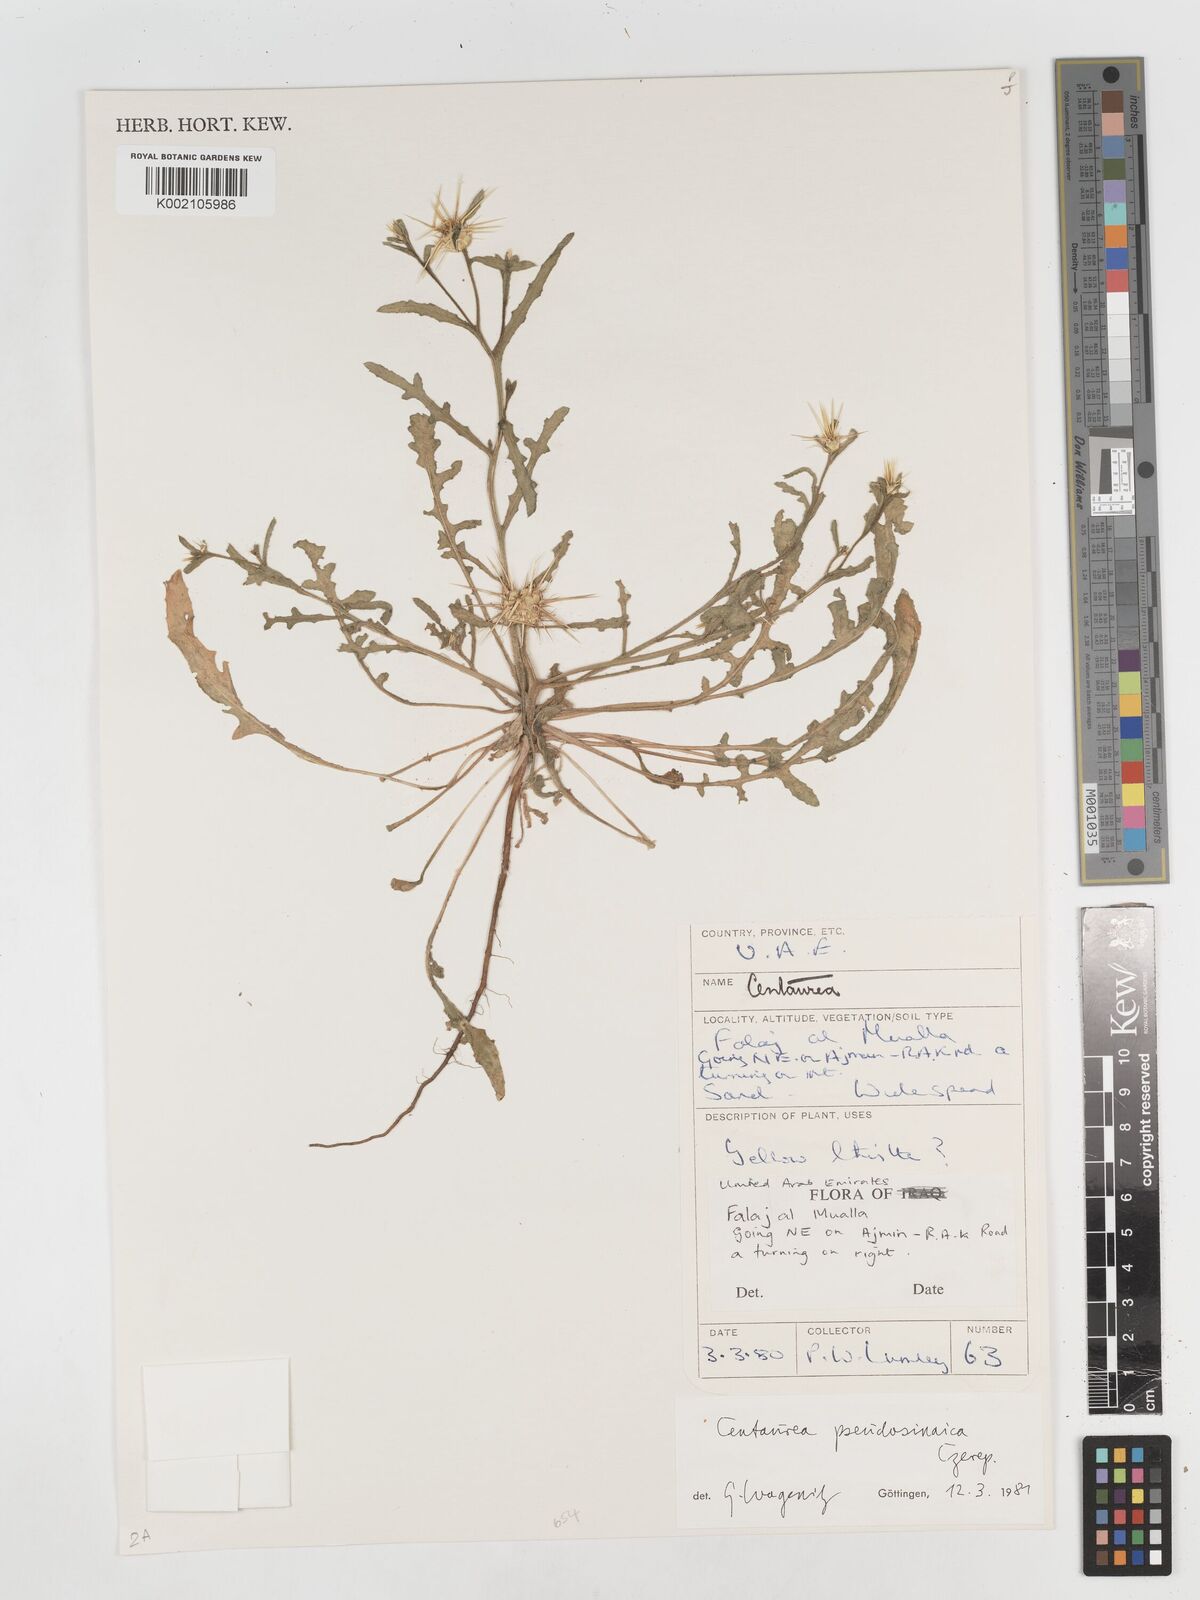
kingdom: Plantae
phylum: Tracheophyta
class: Magnoliopsida
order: Asterales
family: Asteraceae
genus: Centaurea
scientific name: Centaurea
